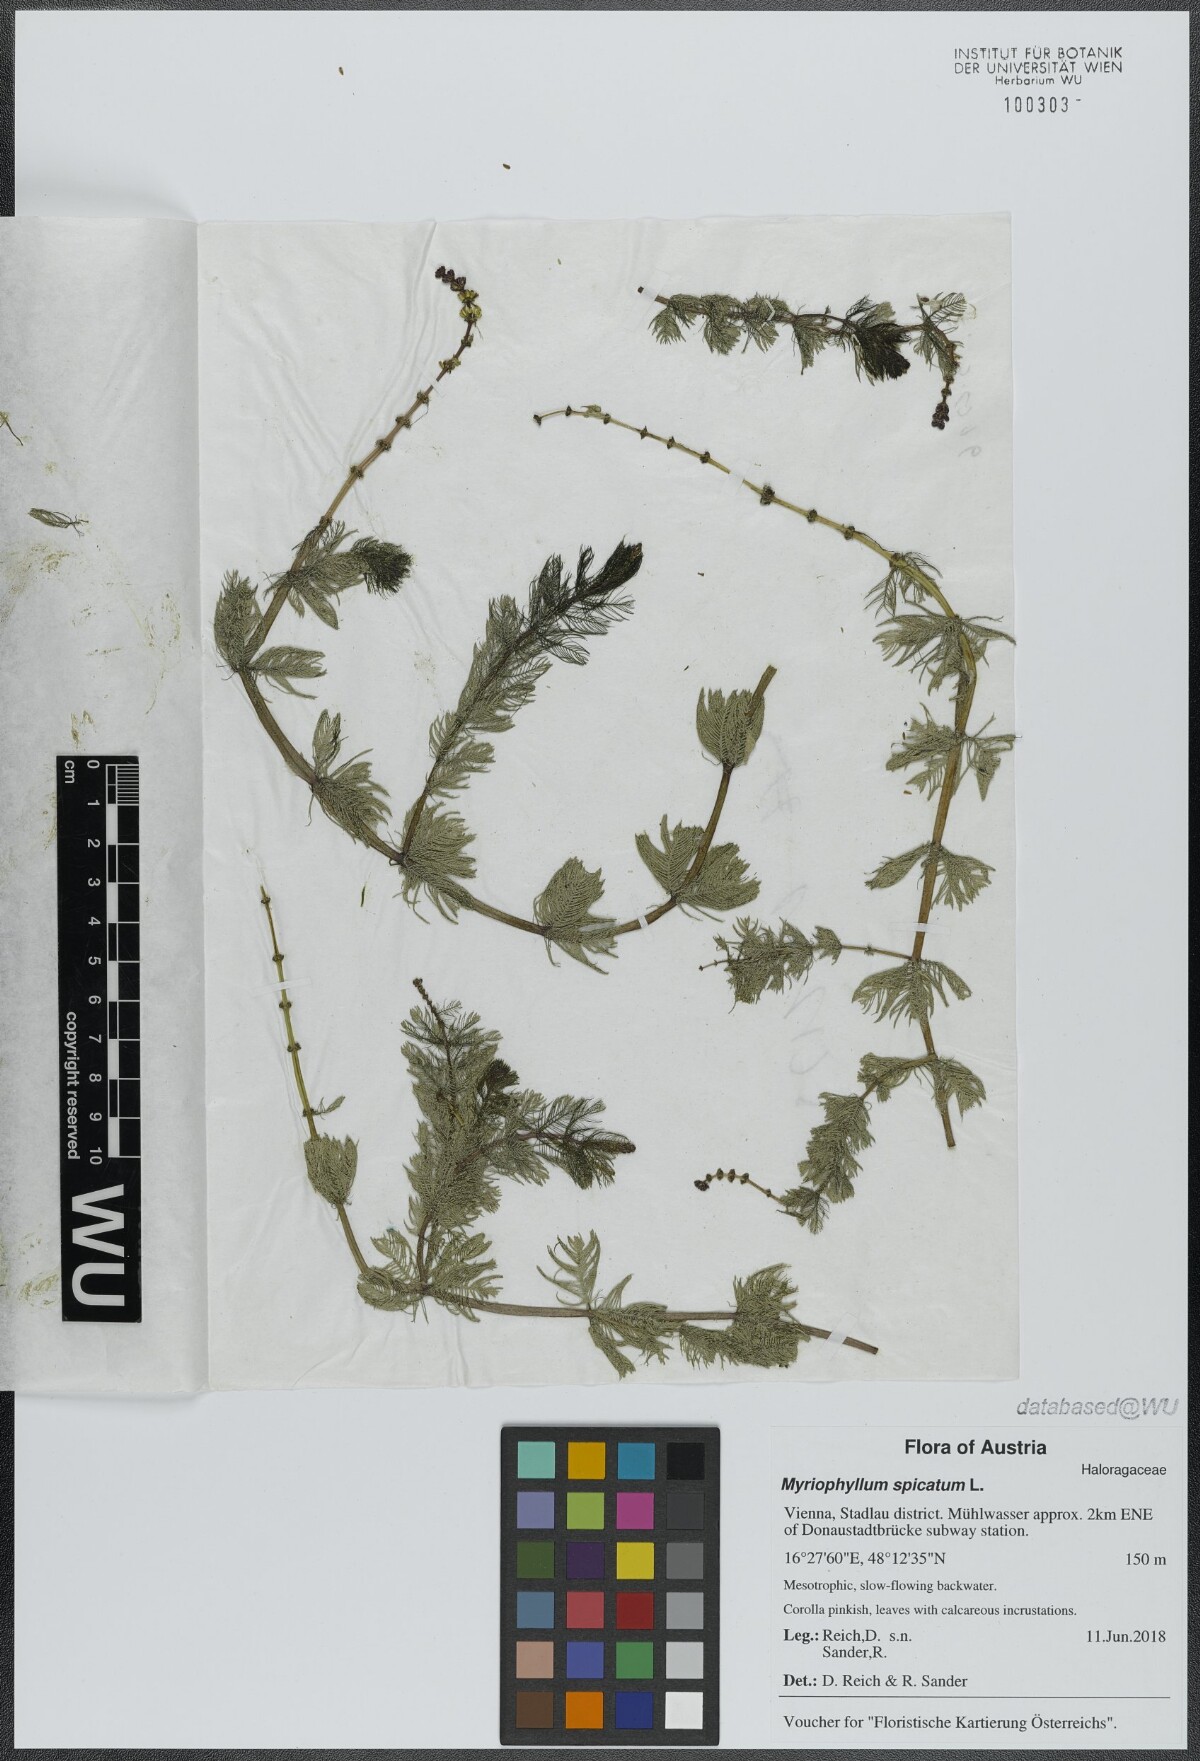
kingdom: Plantae
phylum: Tracheophyta
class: Magnoliopsida
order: Saxifragales
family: Haloragaceae
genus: Myriophyllum
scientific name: Myriophyllum spicatum
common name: Spiked water-milfoil
